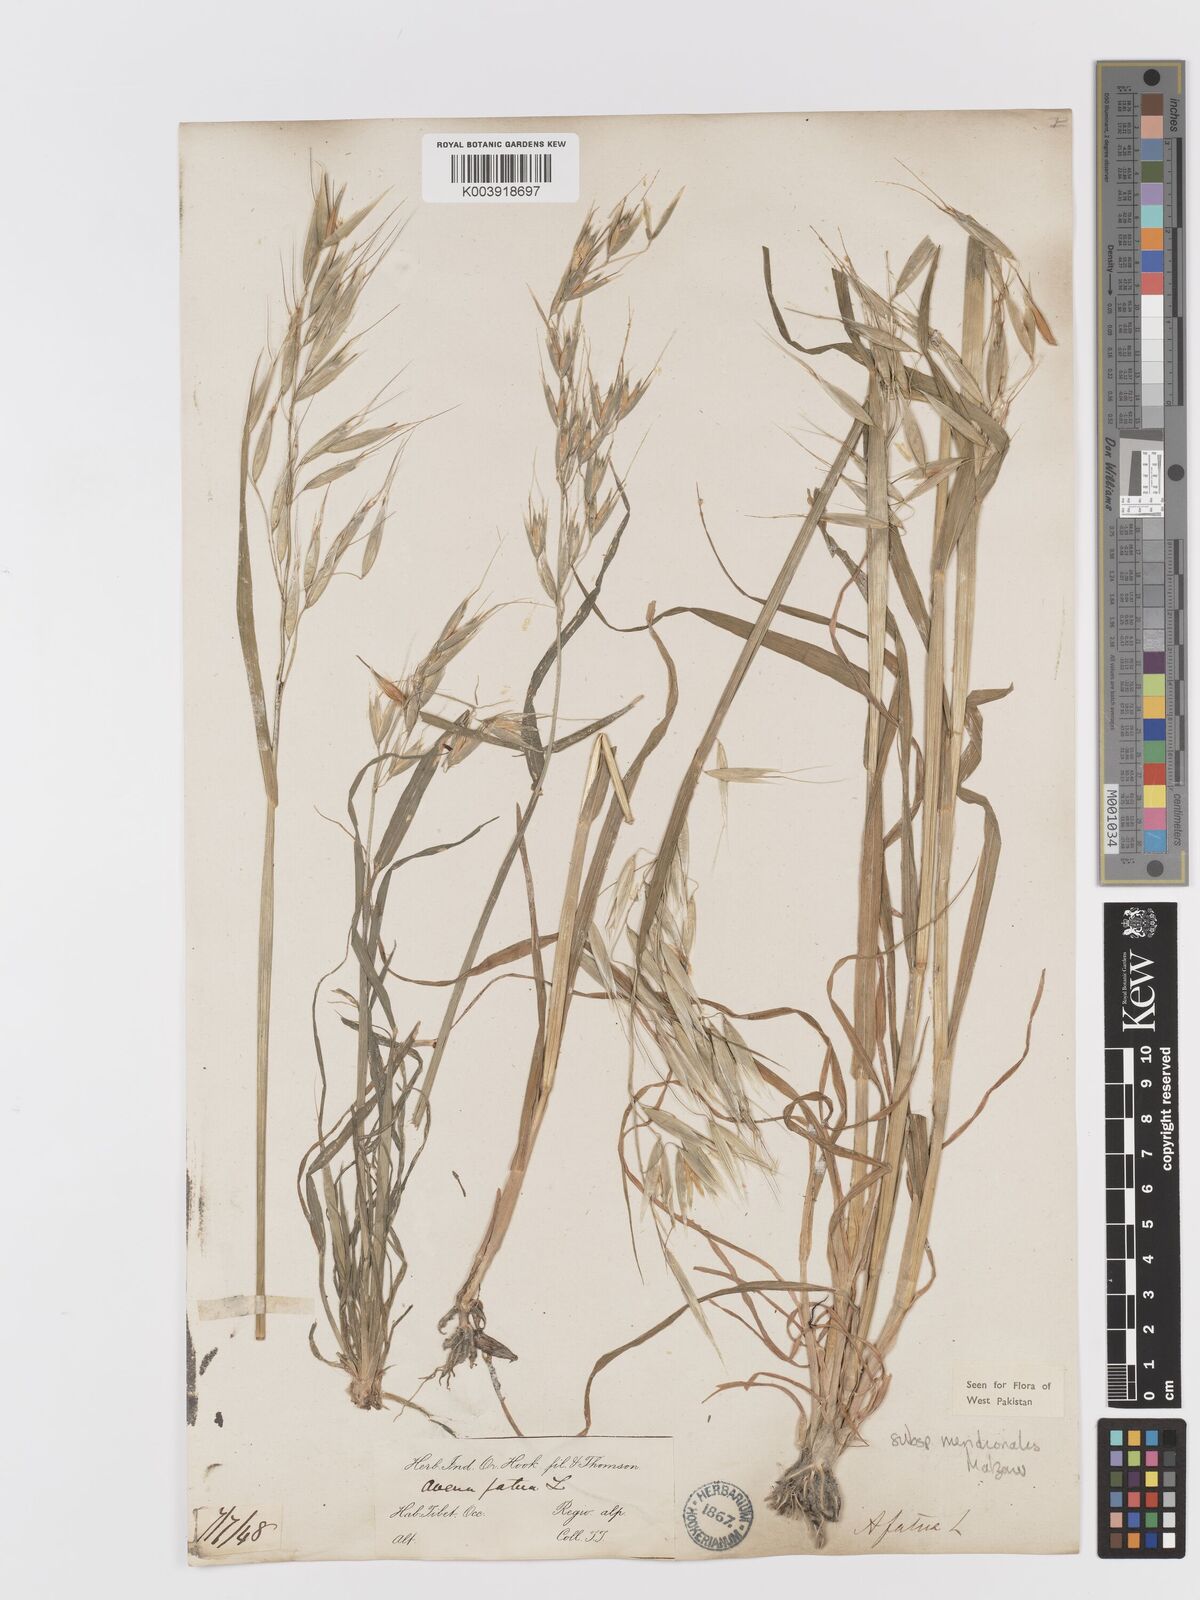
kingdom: Plantae
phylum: Tracheophyta
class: Liliopsida
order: Poales
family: Poaceae
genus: Avena
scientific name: Avena fatua
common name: Wild oat
